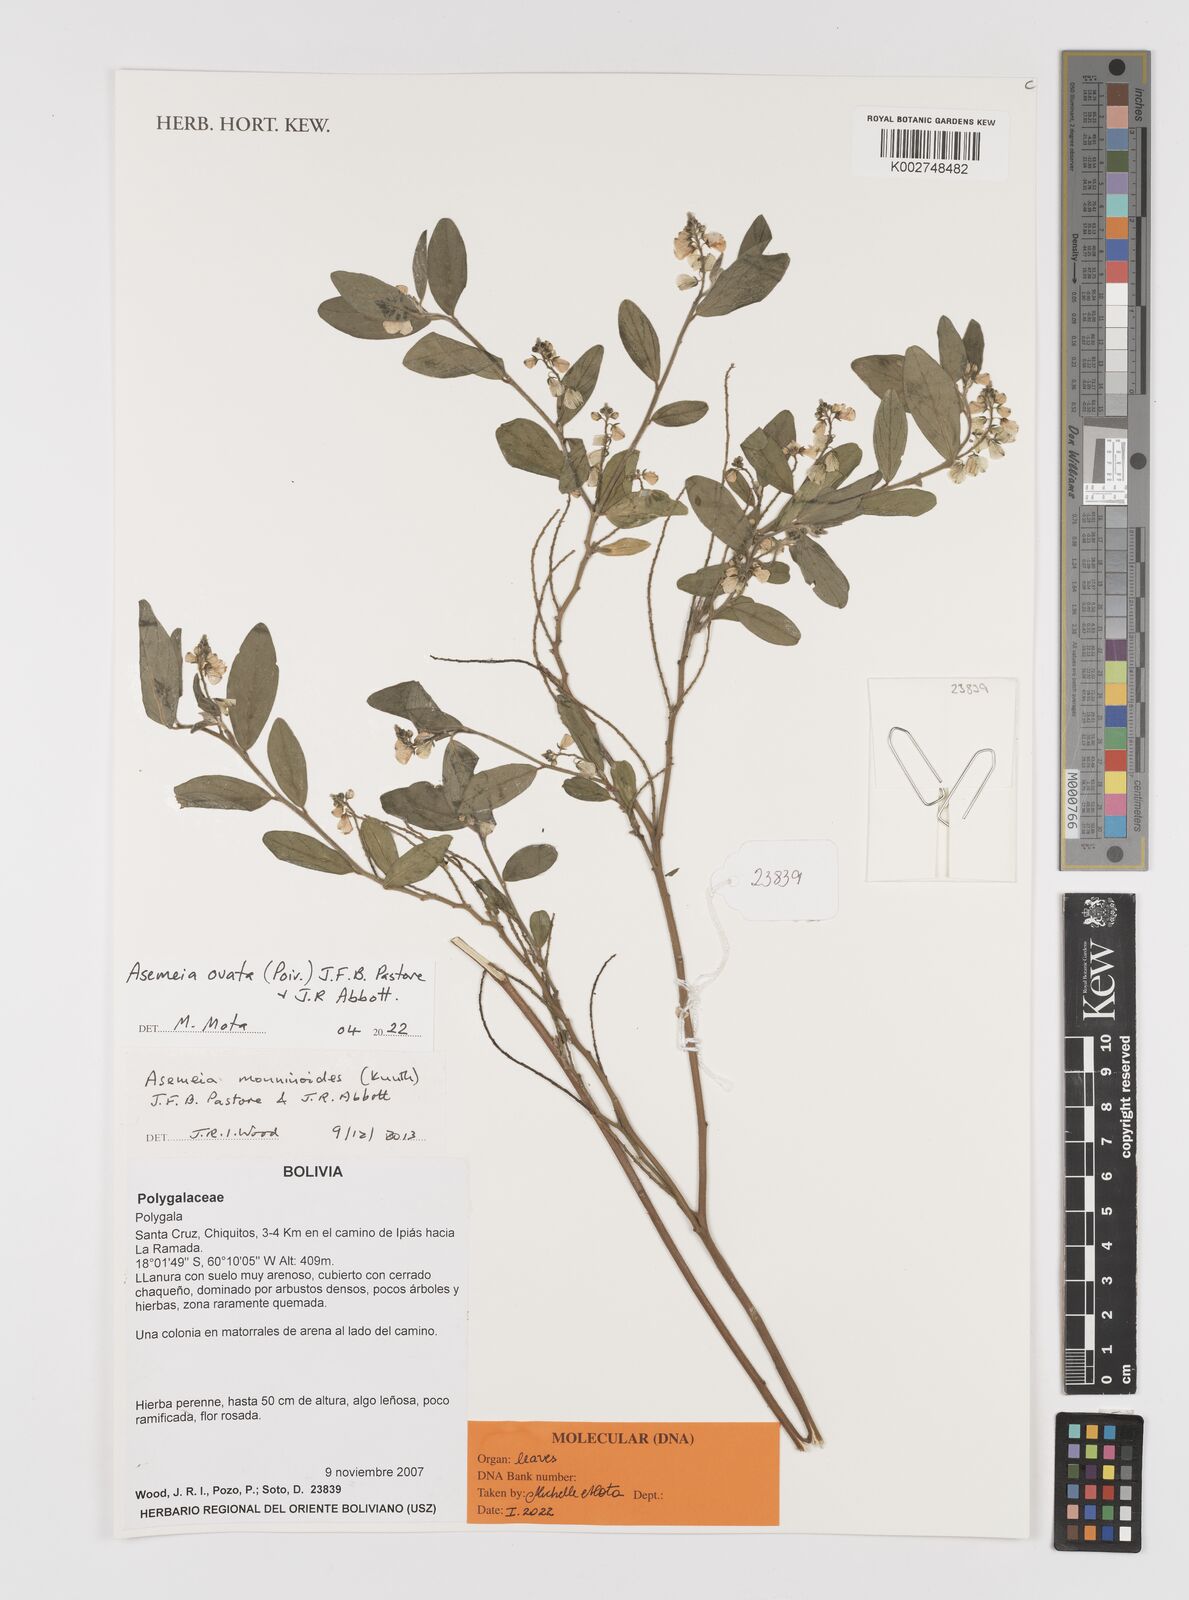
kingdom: Plantae
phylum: Tracheophyta
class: Magnoliopsida
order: Fabales
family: Polygalaceae
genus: Asemeia
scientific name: Asemeia ovata
